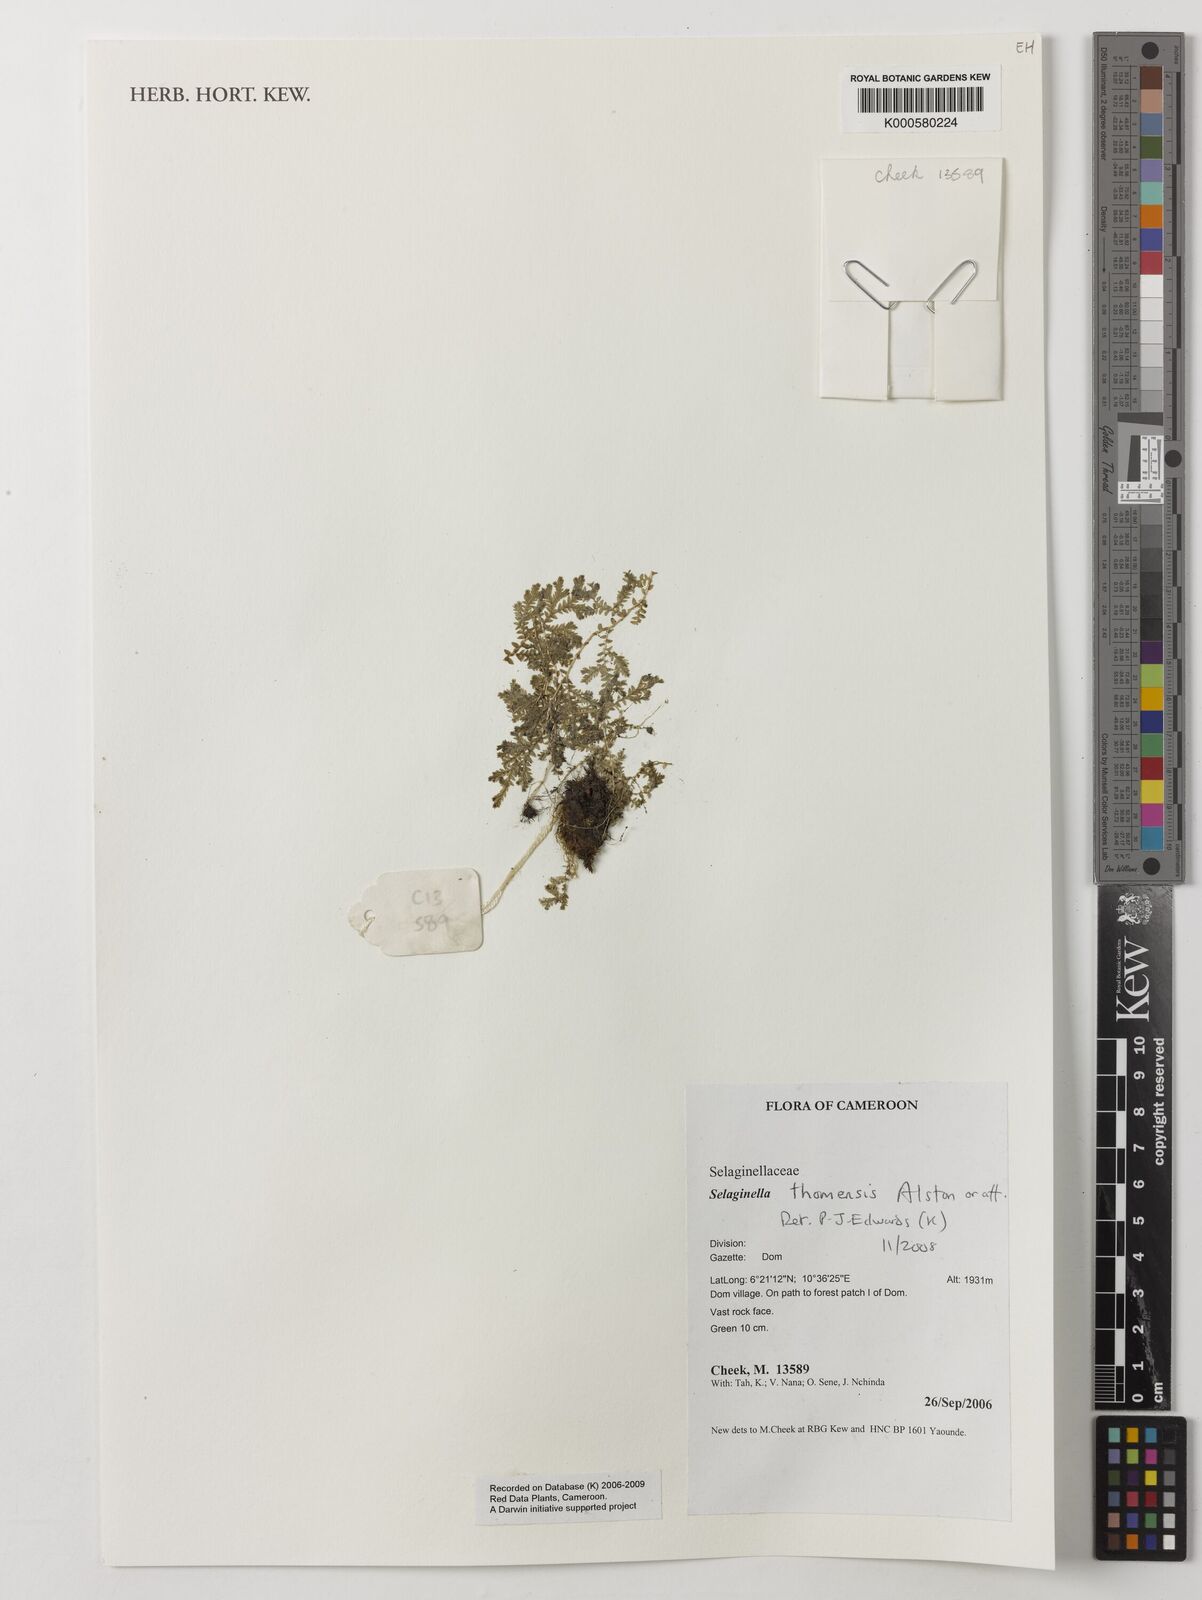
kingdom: Plantae
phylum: Tracheophyta
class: Lycopodiopsida
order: Selaginellales
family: Selaginellaceae
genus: Selaginella
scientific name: Selaginella thomensis
